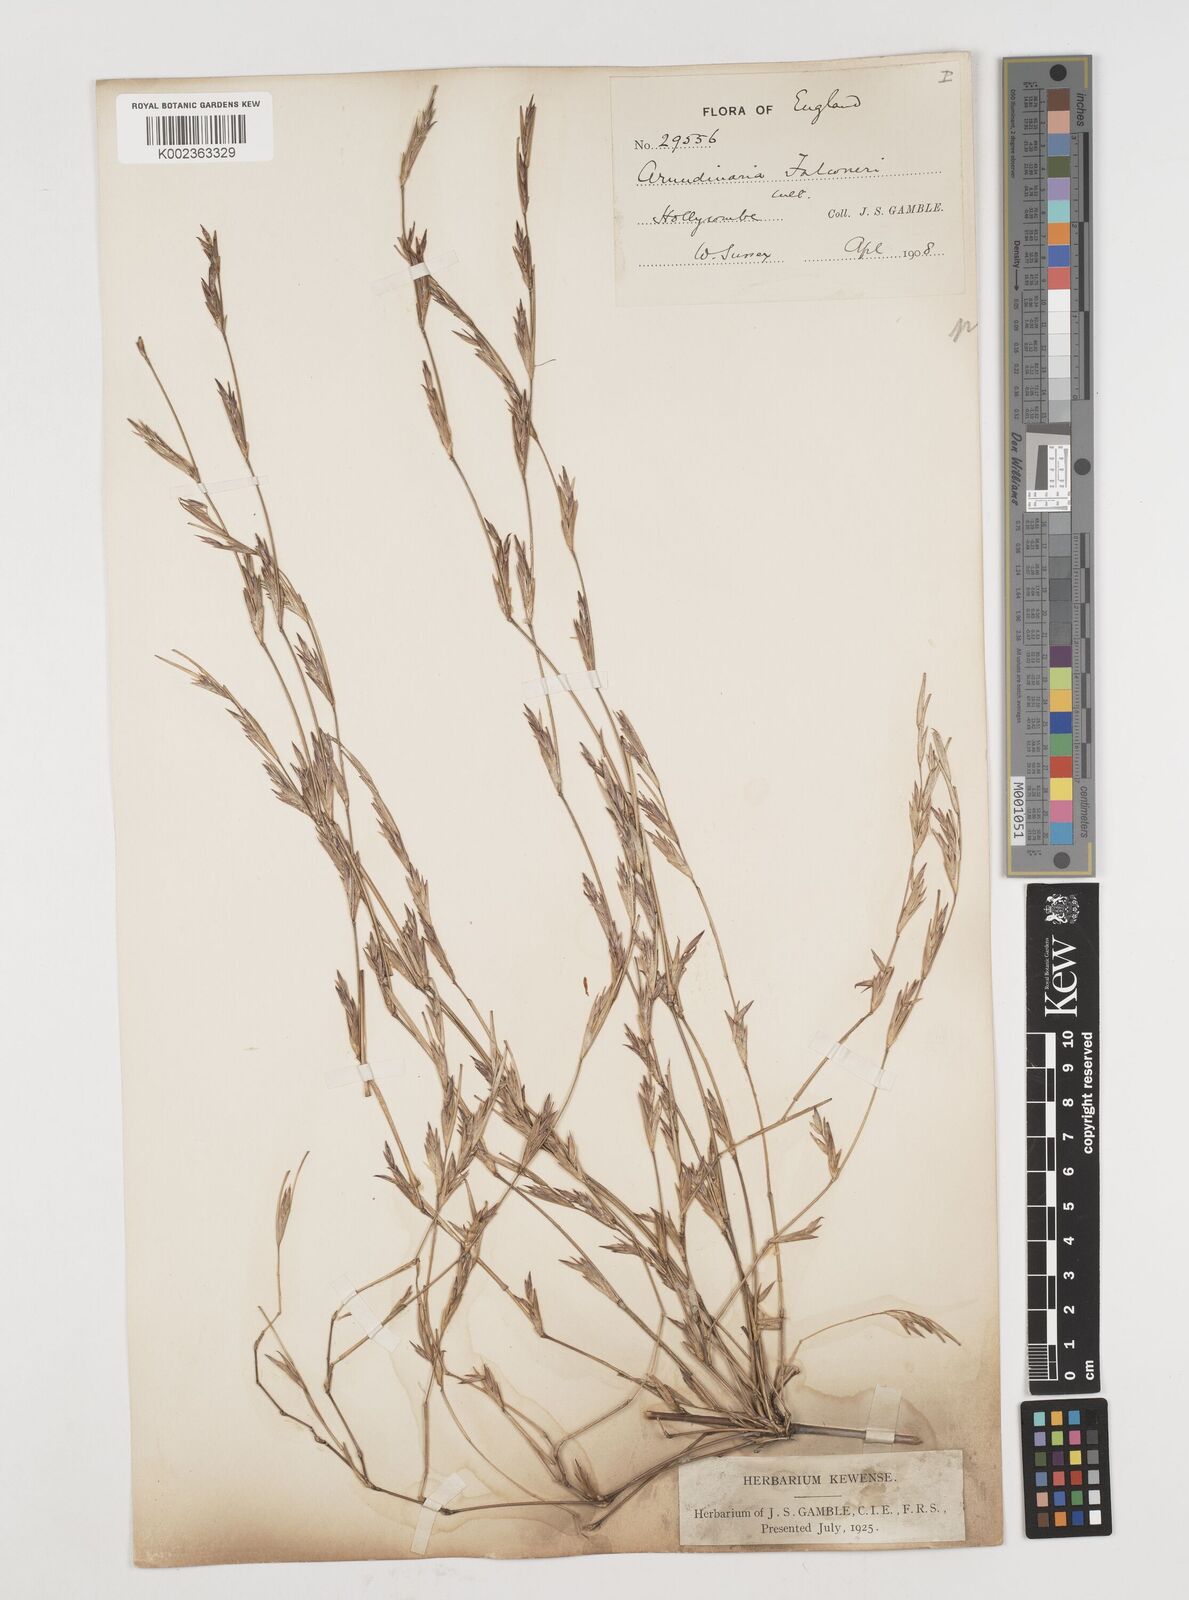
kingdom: Plantae
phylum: Tracheophyta
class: Liliopsida
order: Poales
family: Poaceae
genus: Himalayacalamus
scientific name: Himalayacalamus falconeri
